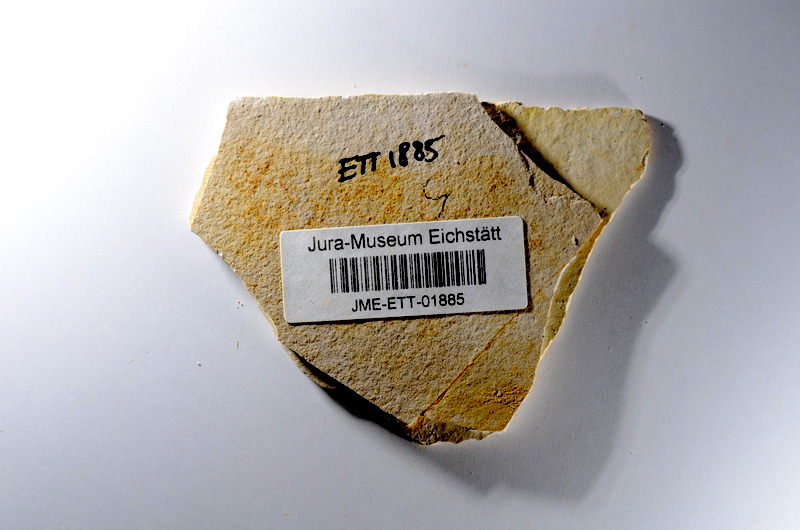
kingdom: Animalia
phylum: Chordata
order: Salmoniformes
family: Orthogonikleithridae
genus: Orthogonikleithrus
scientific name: Orthogonikleithrus hoelli
